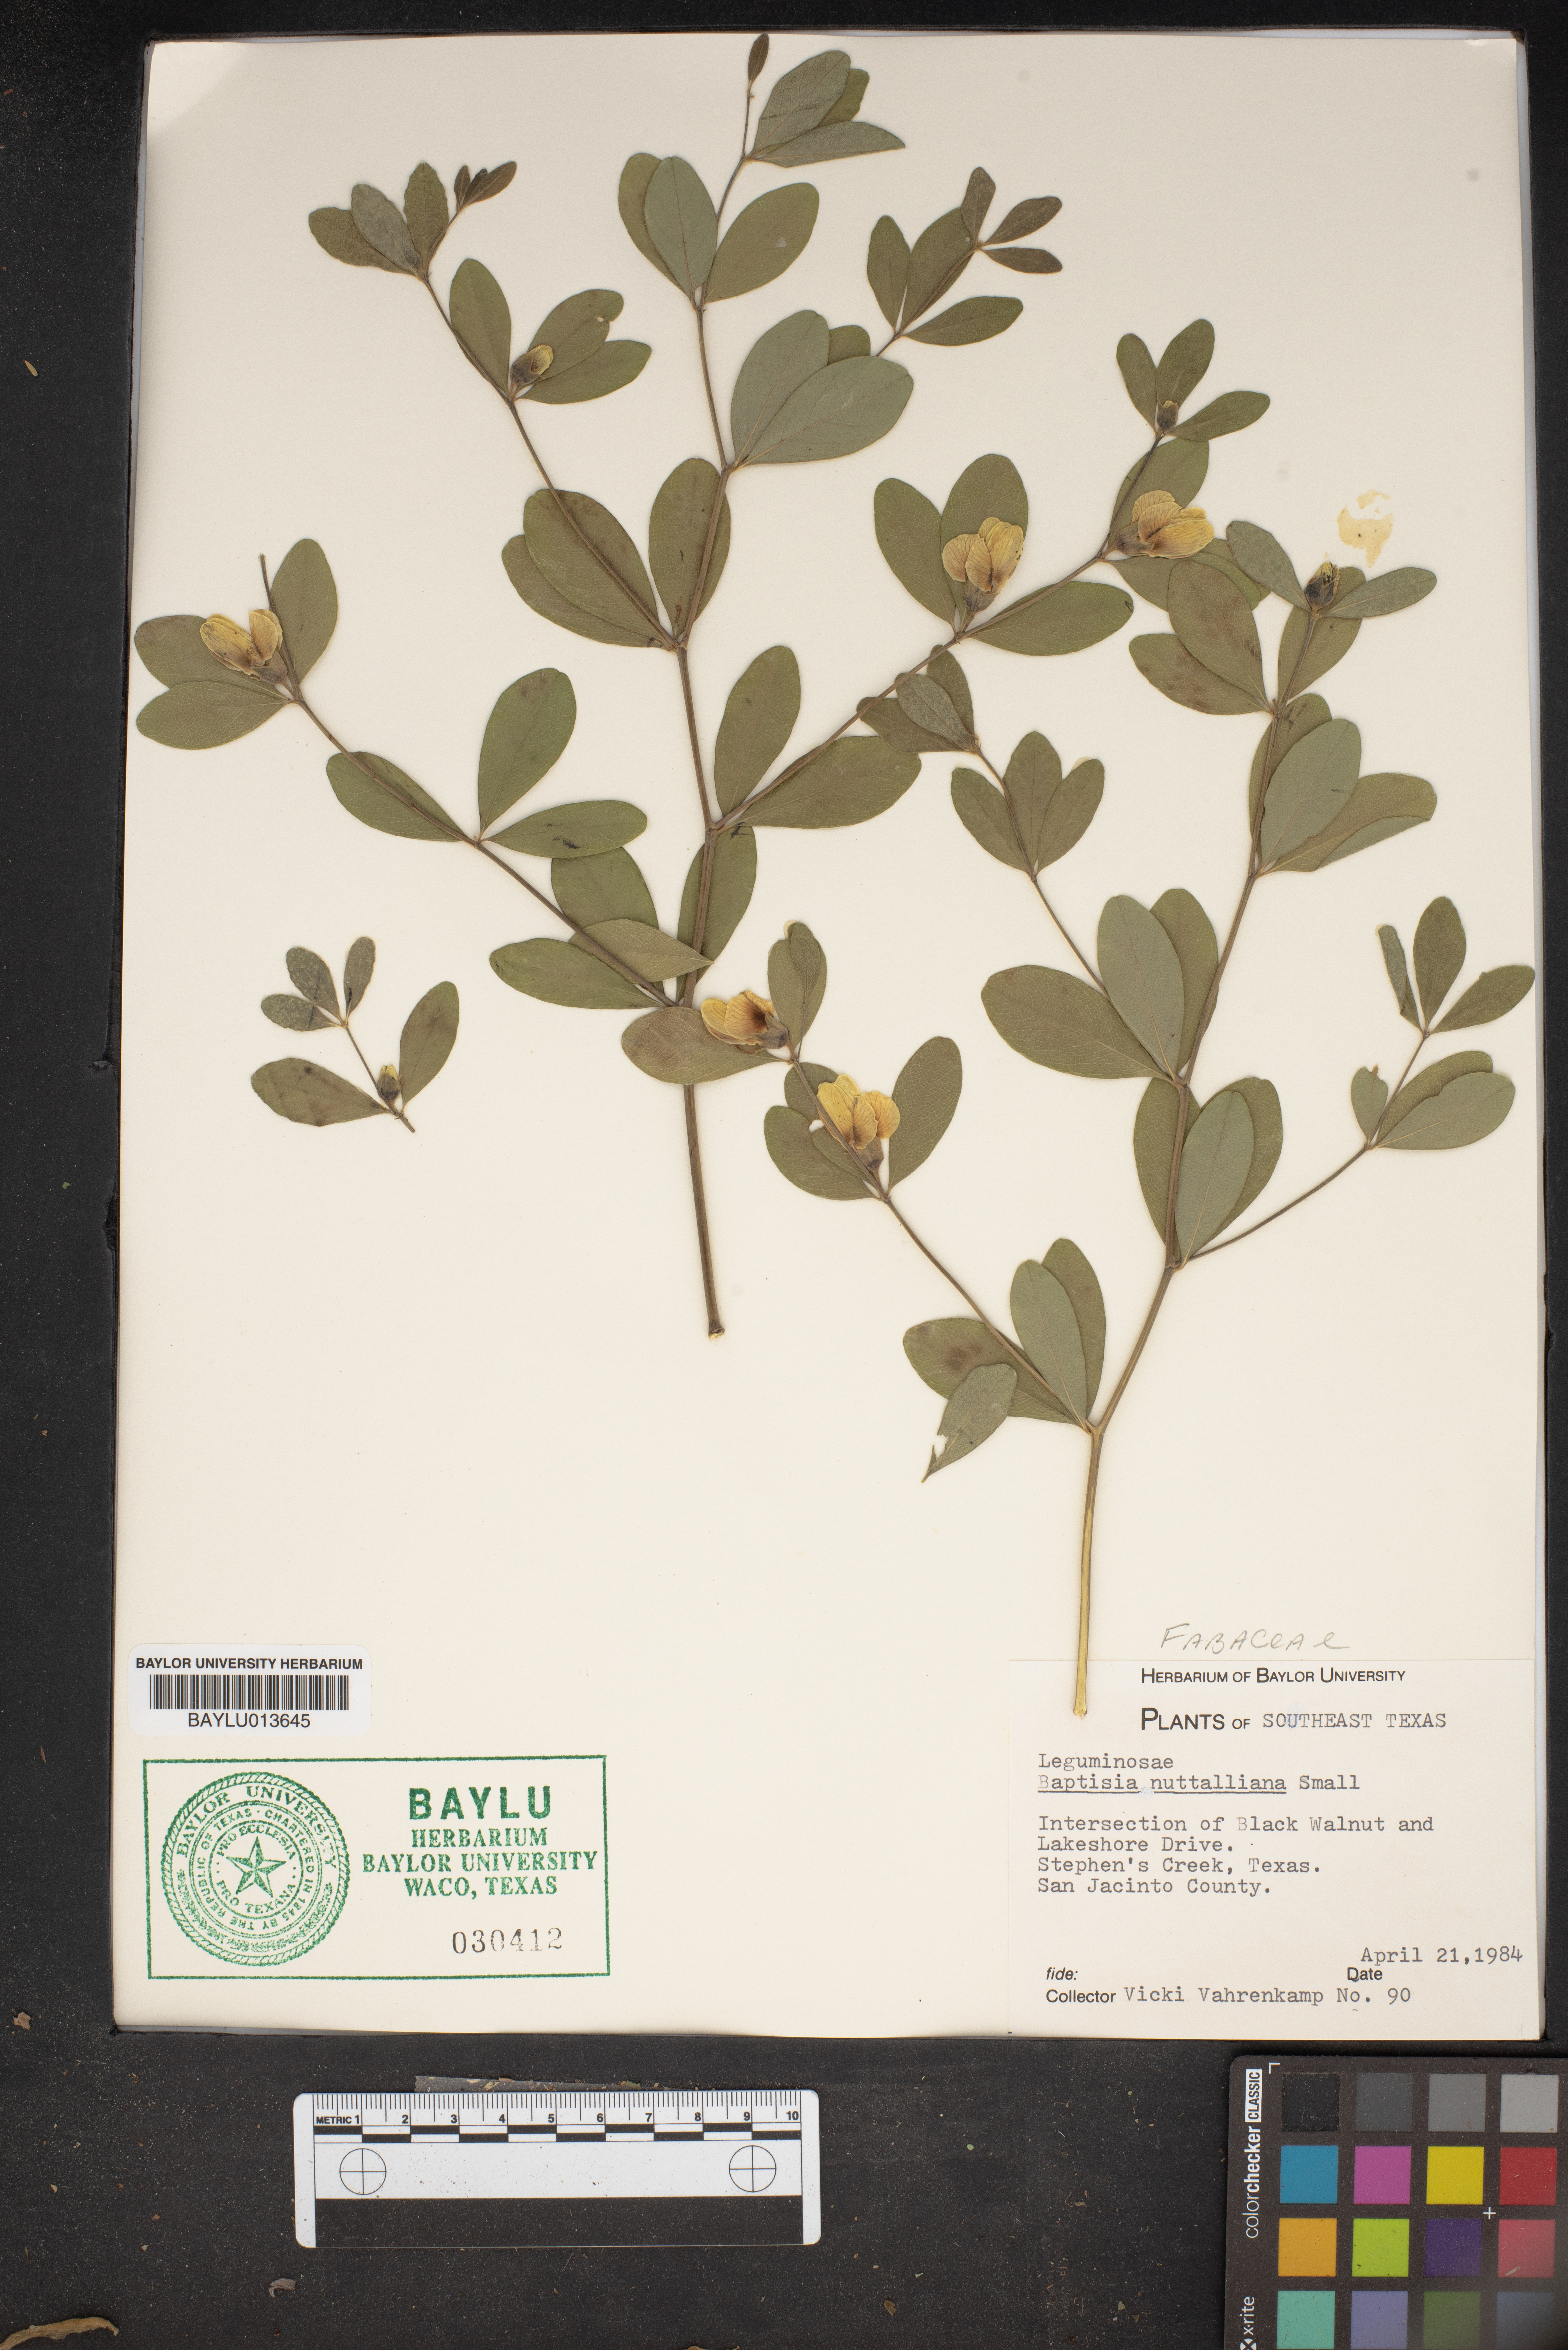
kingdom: Plantae
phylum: Tracheophyta
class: Magnoliopsida
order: Fabales
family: Fabaceae
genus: Baptisia
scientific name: Baptisia nuttalliana
